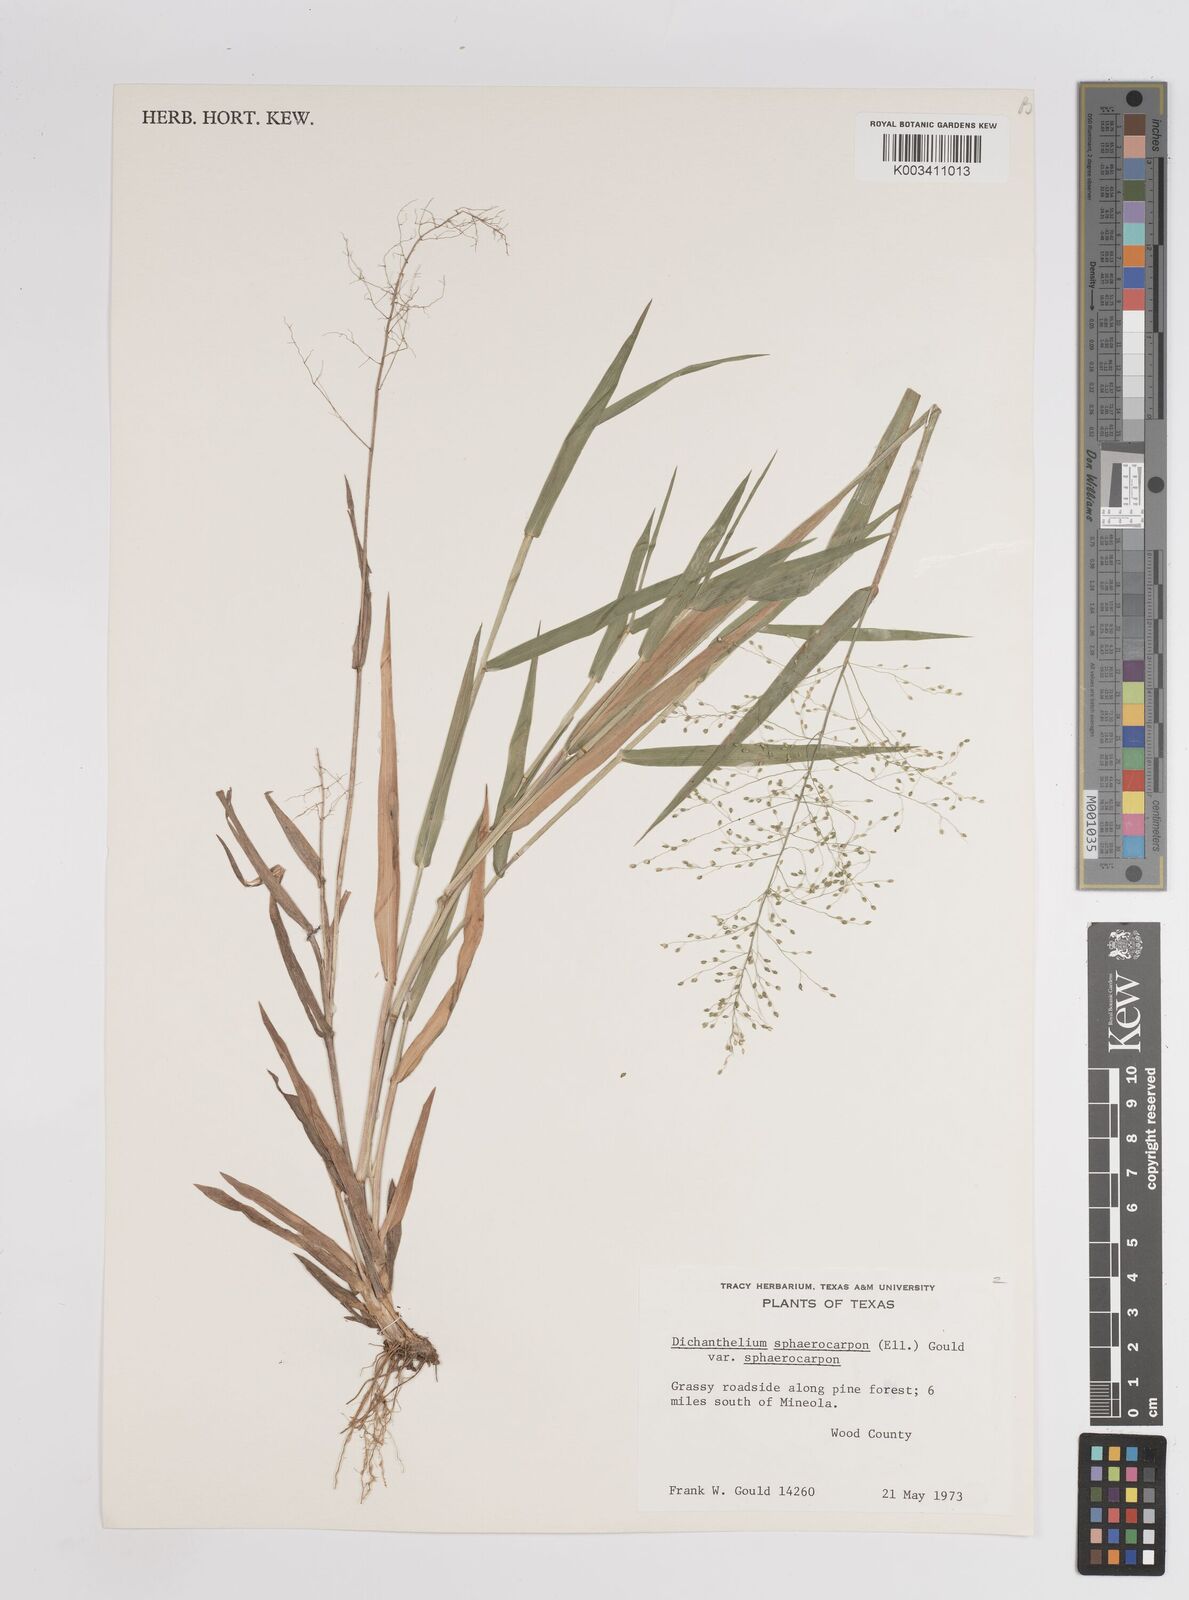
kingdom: Plantae
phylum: Tracheophyta
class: Liliopsida
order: Poales
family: Poaceae
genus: Setaria
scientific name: Setaria tenax
